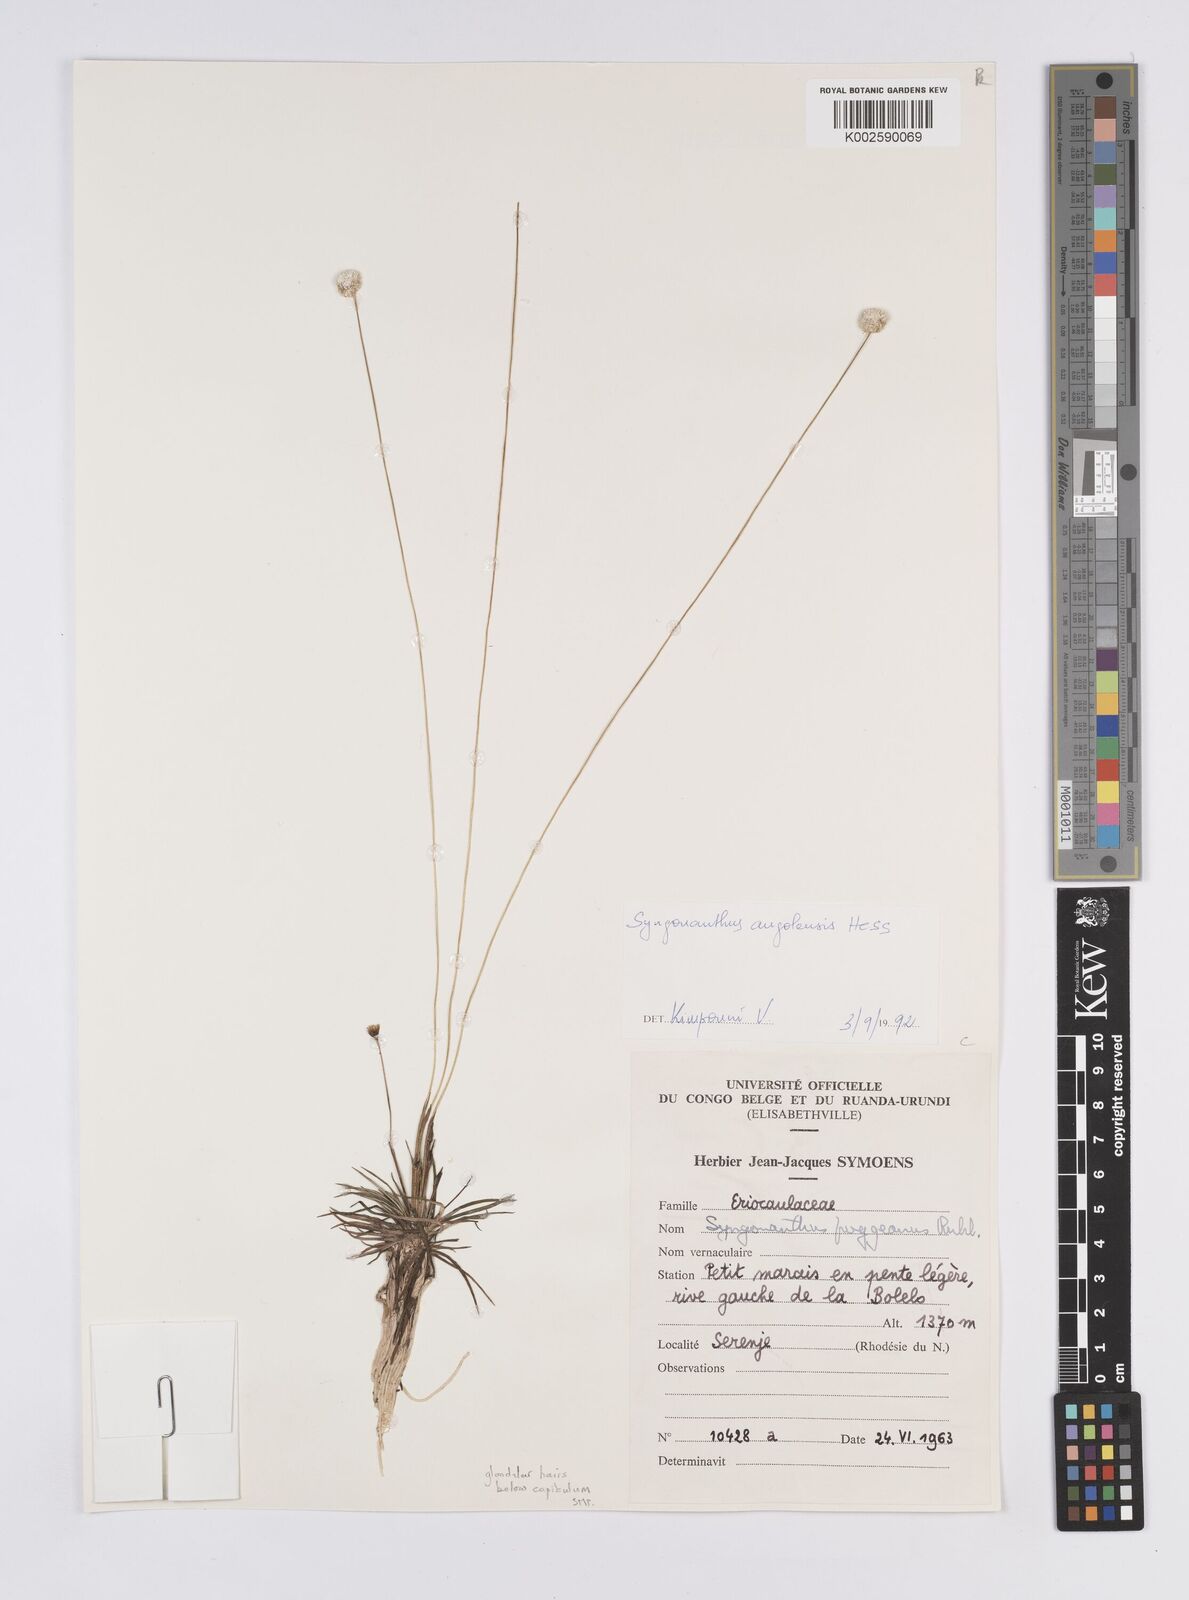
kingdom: Plantae
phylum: Tracheophyta
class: Liliopsida
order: Poales
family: Eriocaulaceae
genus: Syngonanthus
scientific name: Syngonanthus angolensis
